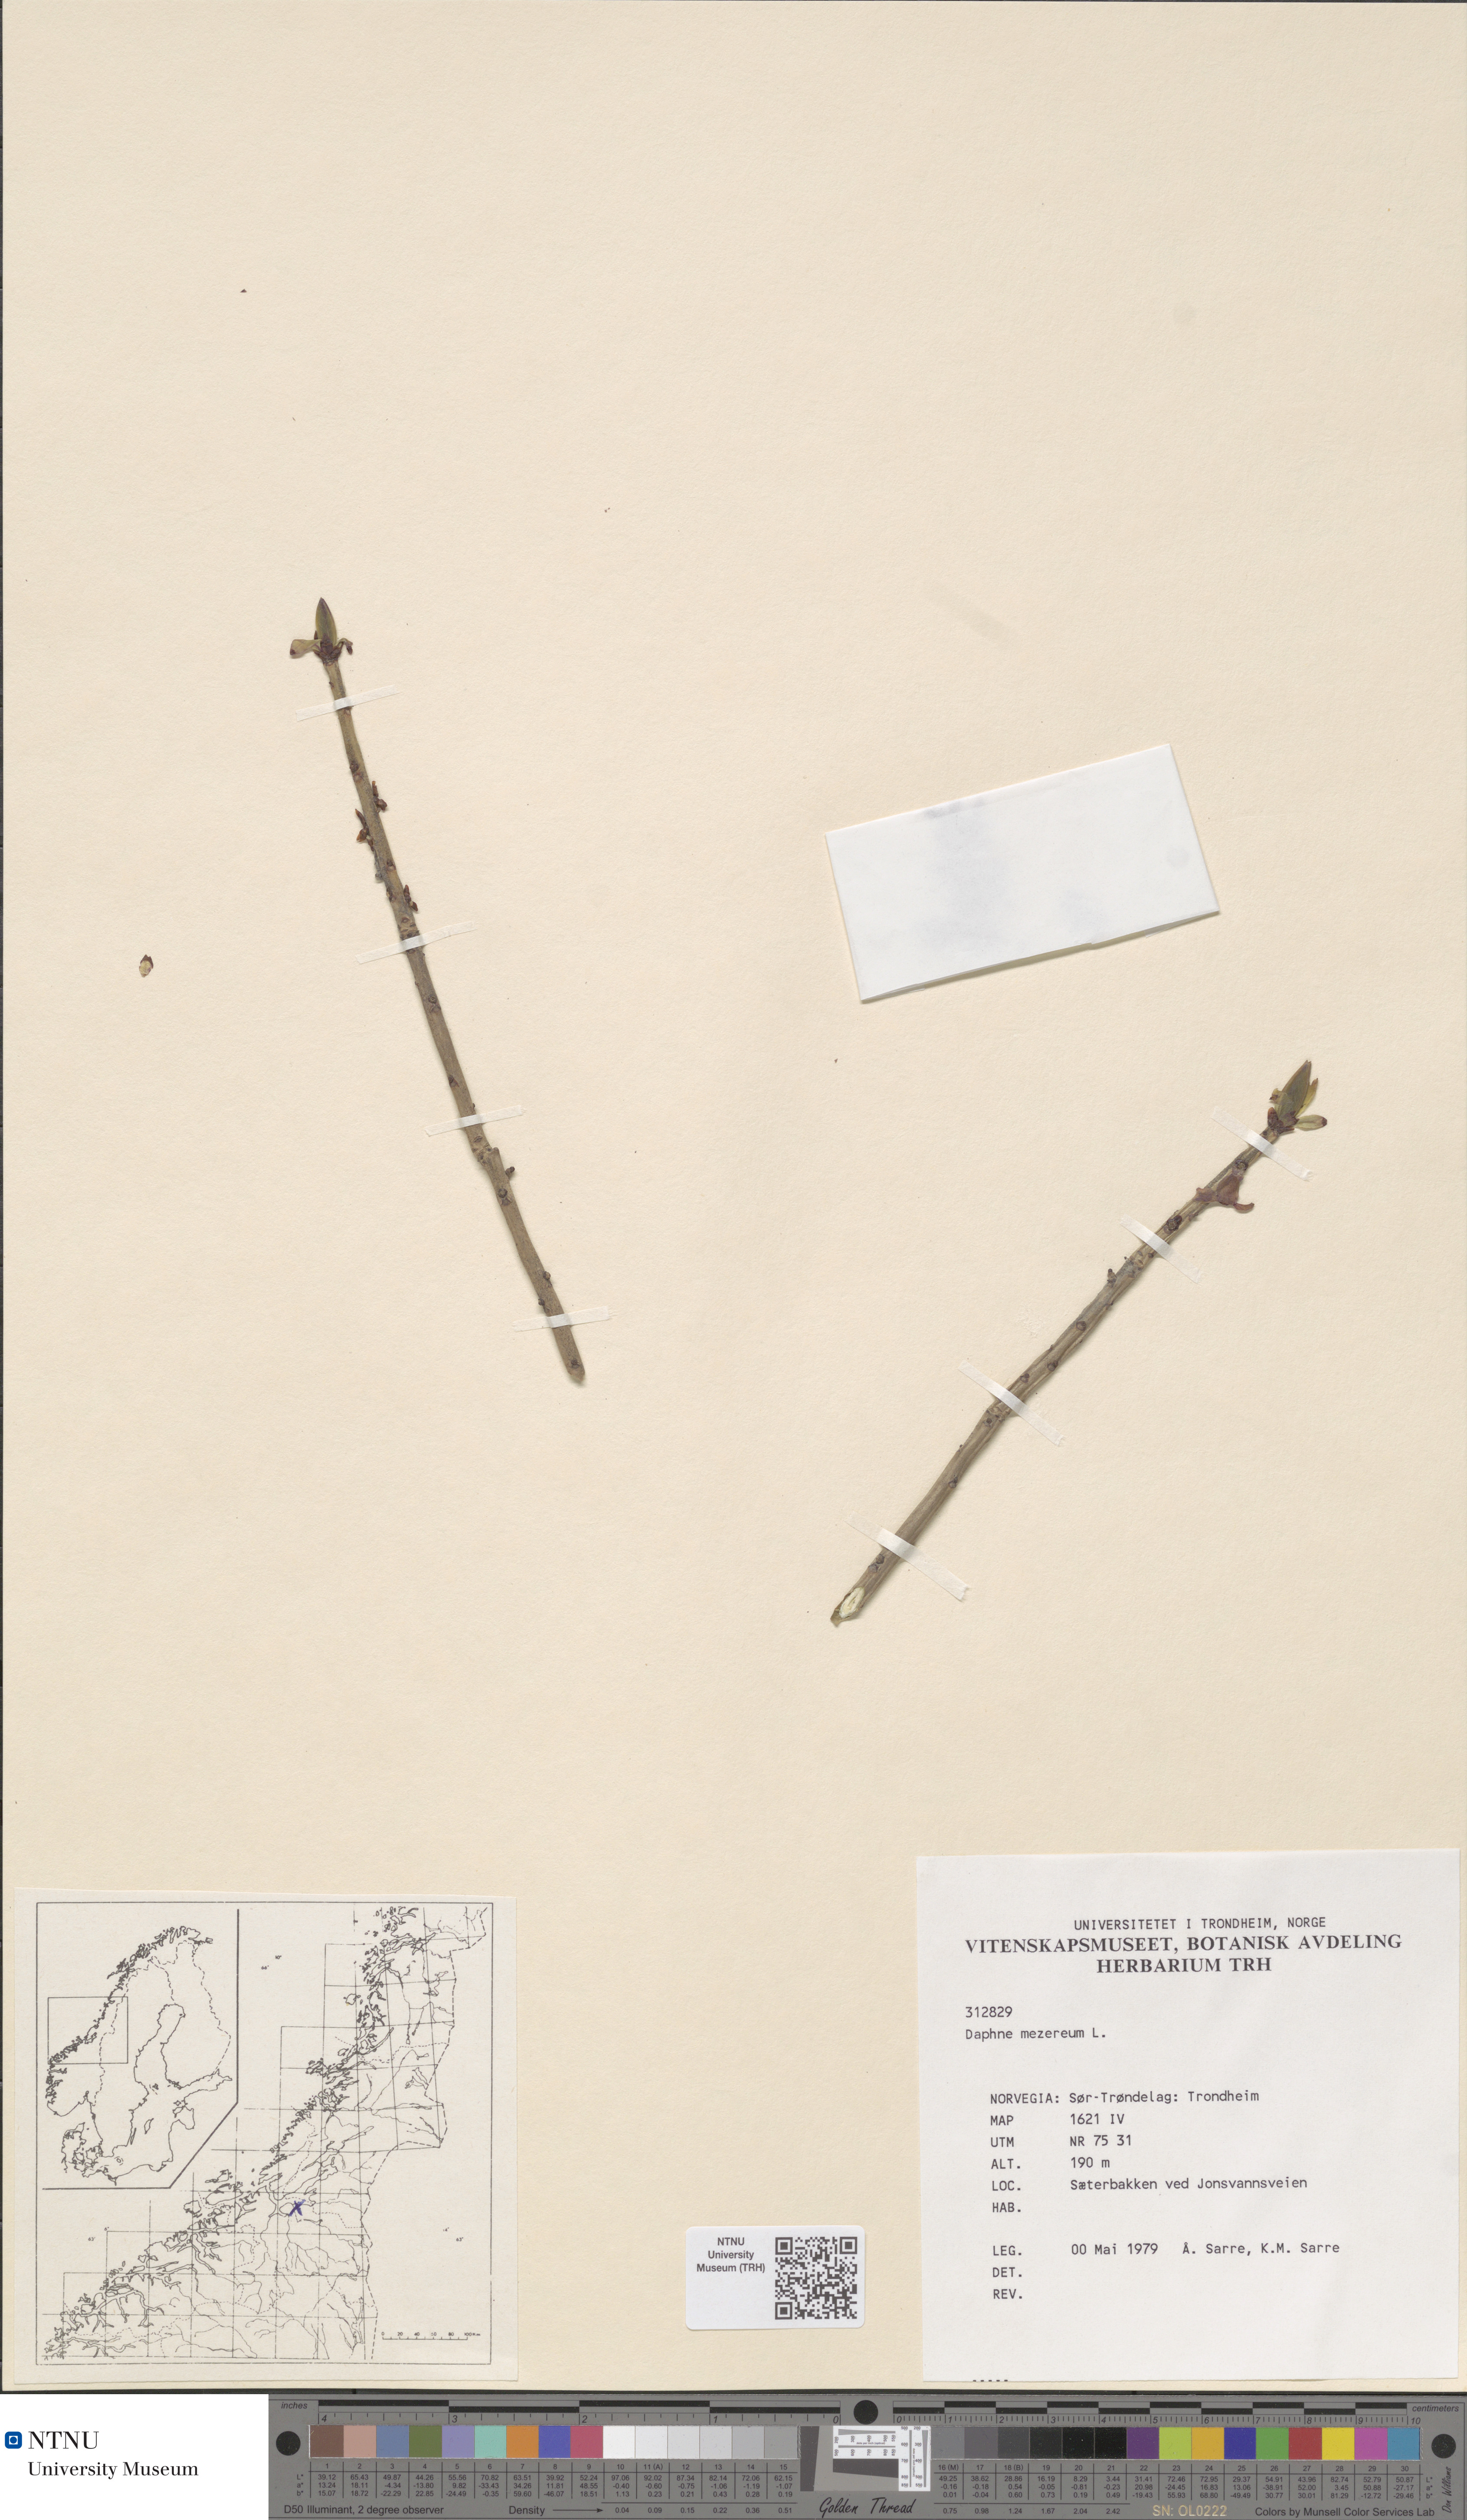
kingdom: Plantae
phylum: Tracheophyta
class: Magnoliopsida
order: Malvales
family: Thymelaeaceae
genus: Daphne
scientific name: Daphne mezereum
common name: Mezereon
